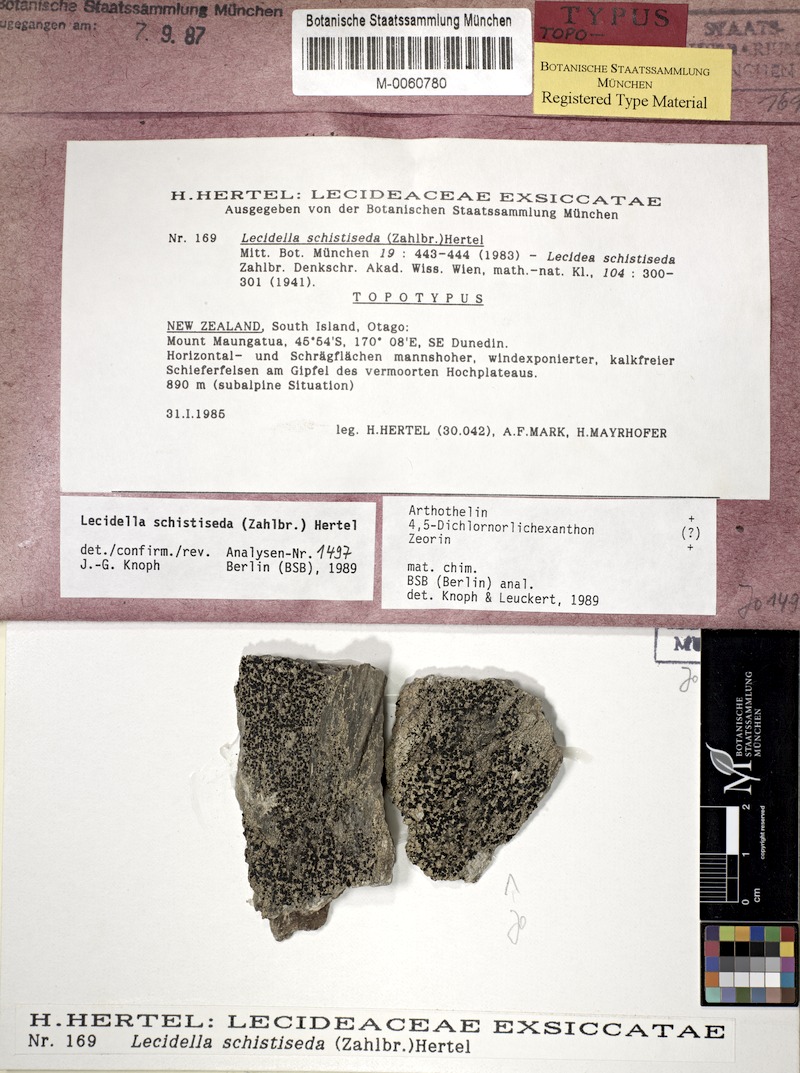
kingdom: Fungi
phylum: Ascomycota
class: Lecanoromycetes
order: Lecanorales
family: Lecanoraceae
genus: Lecidella
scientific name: Lecidella schistiseda
